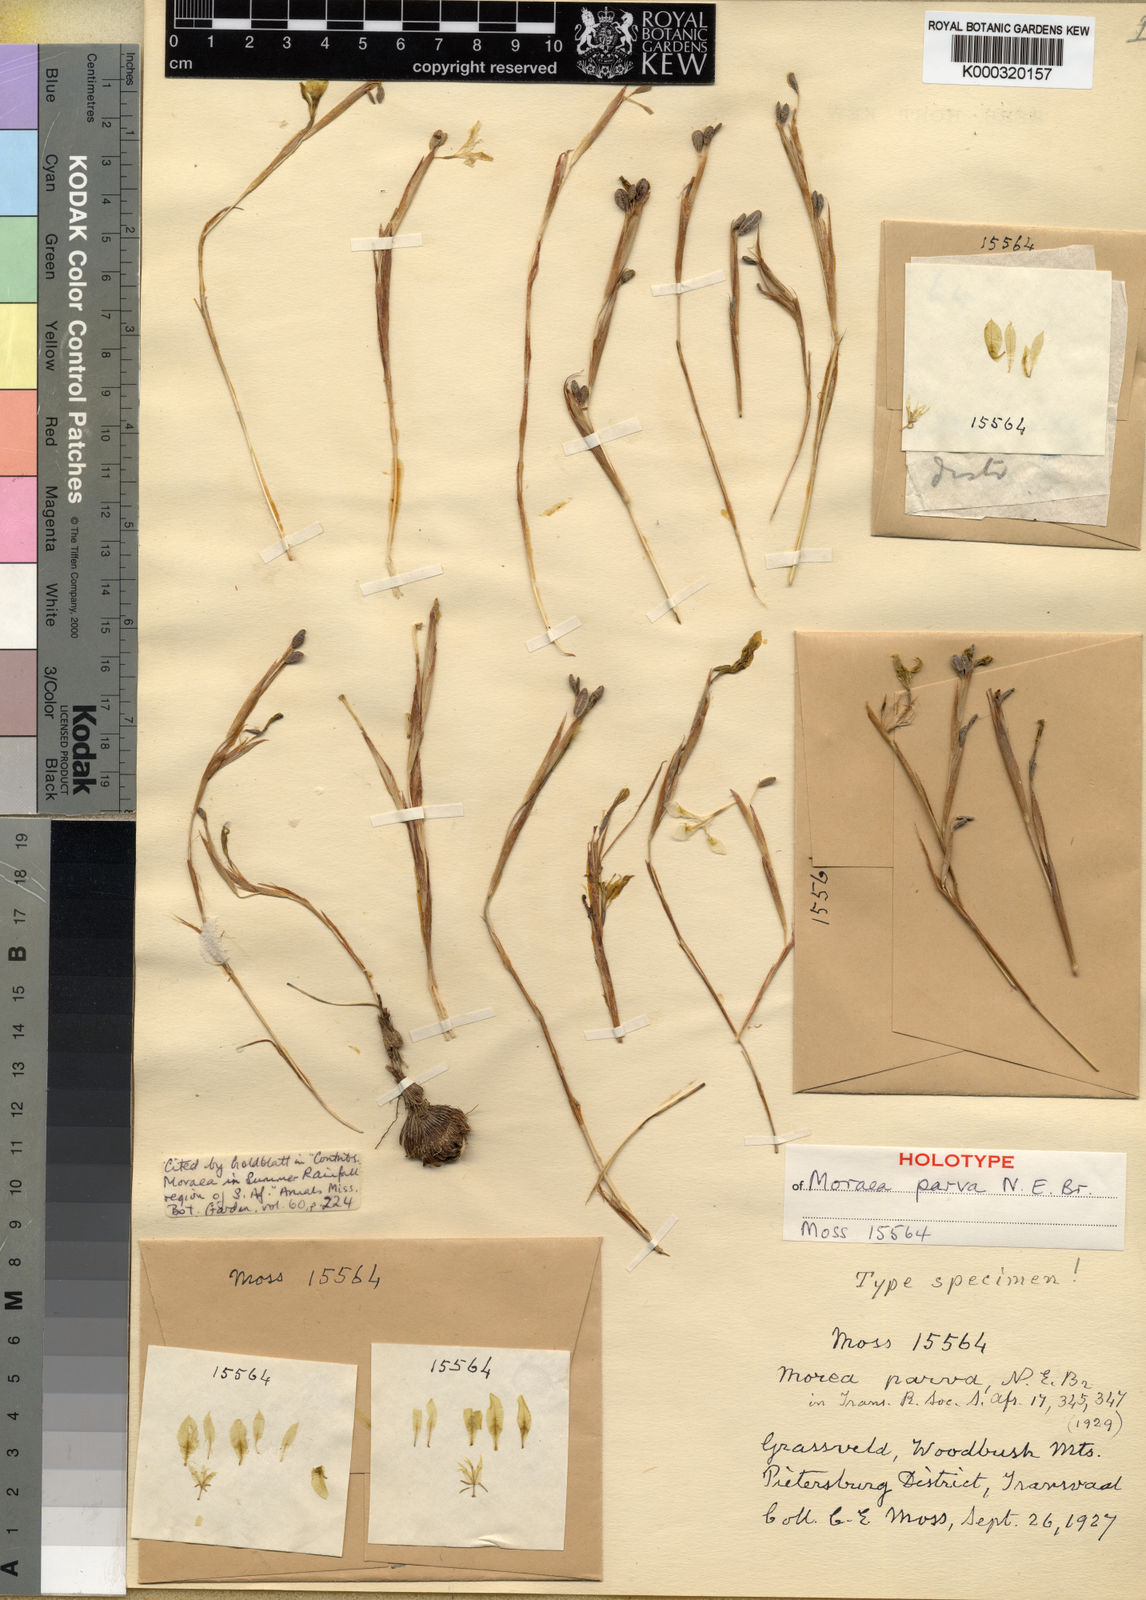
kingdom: Plantae
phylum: Tracheophyta
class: Liliopsida
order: Asparagales
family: Iridaceae
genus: Moraea
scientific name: Moraea stricta
